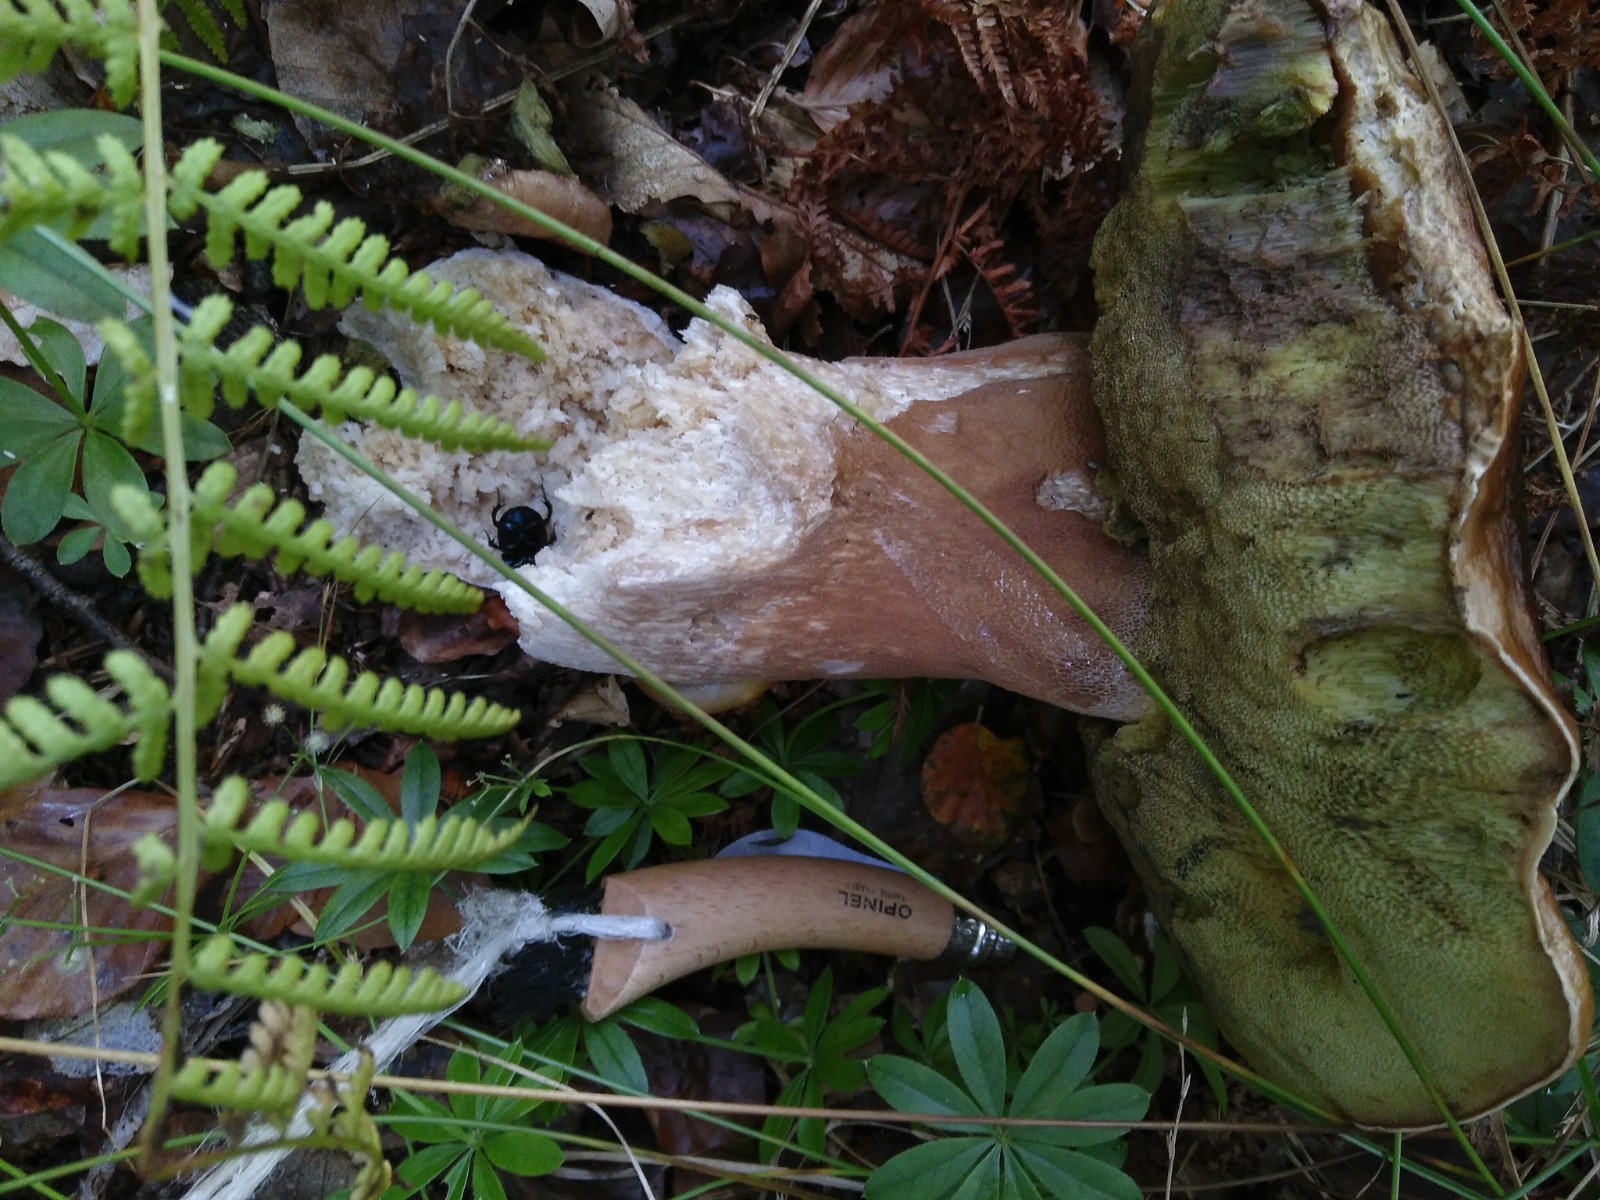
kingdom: Fungi
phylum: Basidiomycota
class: Agaricomycetes
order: Boletales
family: Boletaceae
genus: Boletus
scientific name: Boletus edulis
